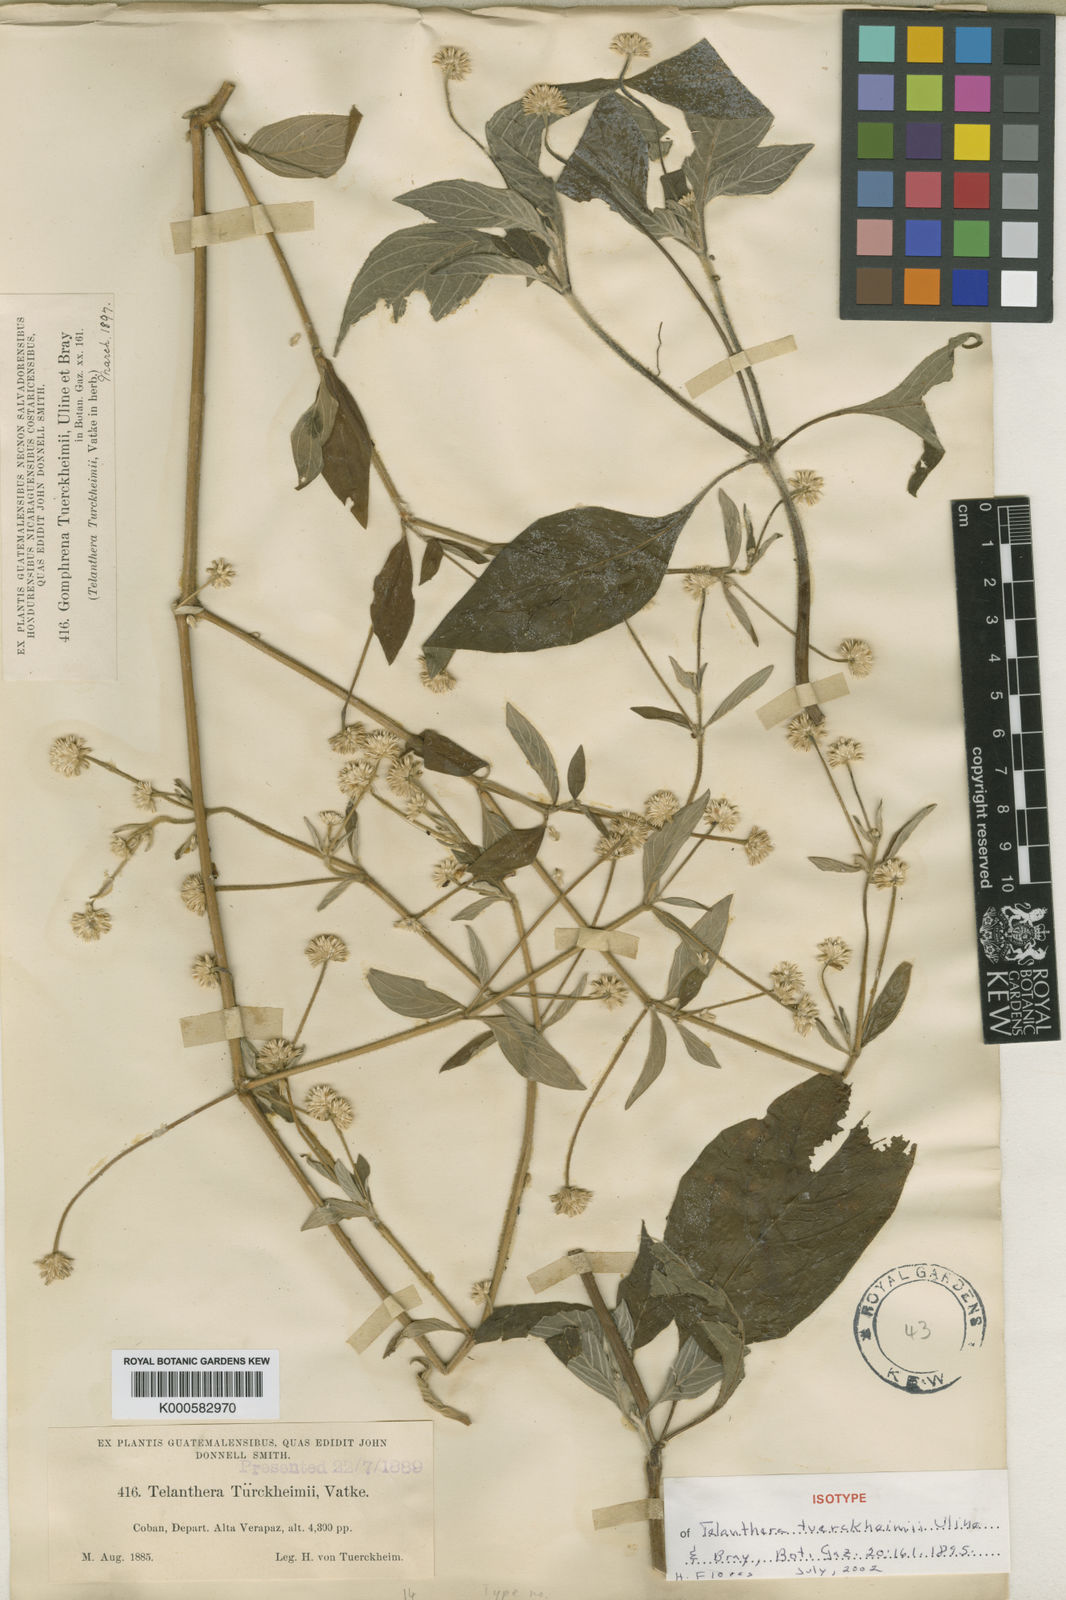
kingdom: Plantae
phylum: Tracheophyta
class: Magnoliopsida
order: Caryophyllales
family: Amaranthaceae
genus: Alternanthera
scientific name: Alternanthera
